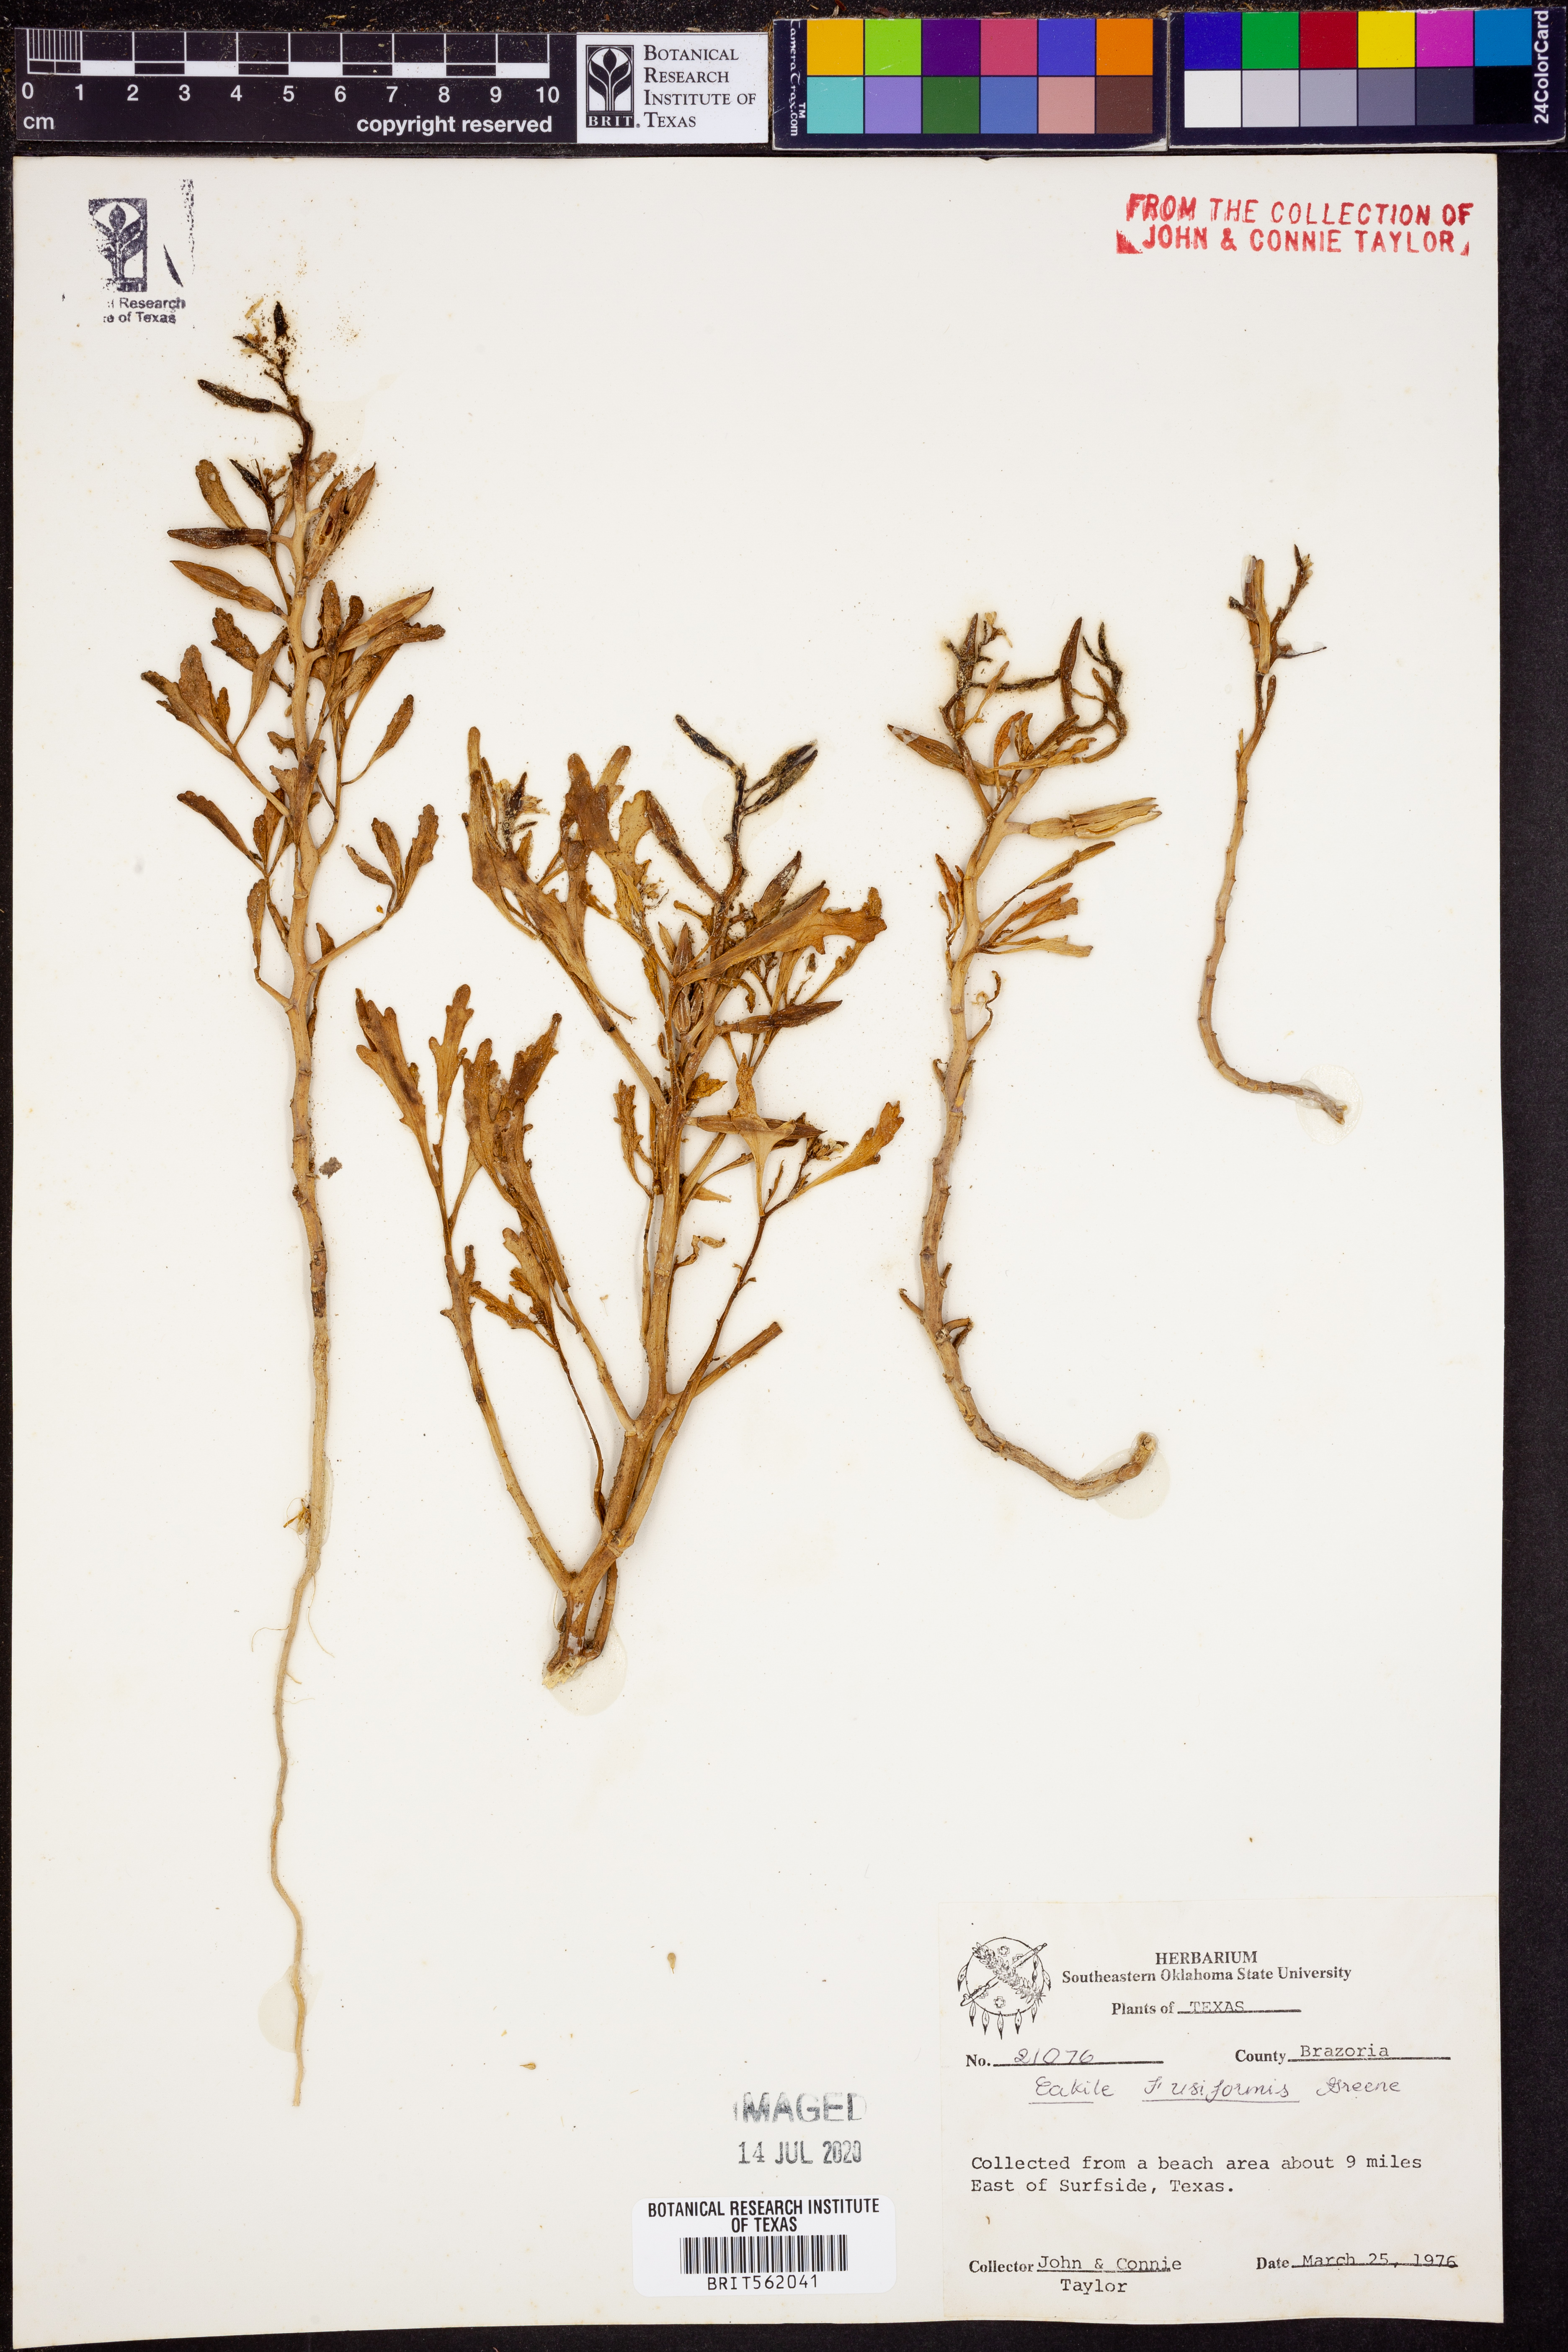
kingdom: Plantae
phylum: Tracheophyta
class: Magnoliopsida
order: Brassicales
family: Brassicaceae
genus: Cakile
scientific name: Cakile lanceolata
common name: Sea rocket
